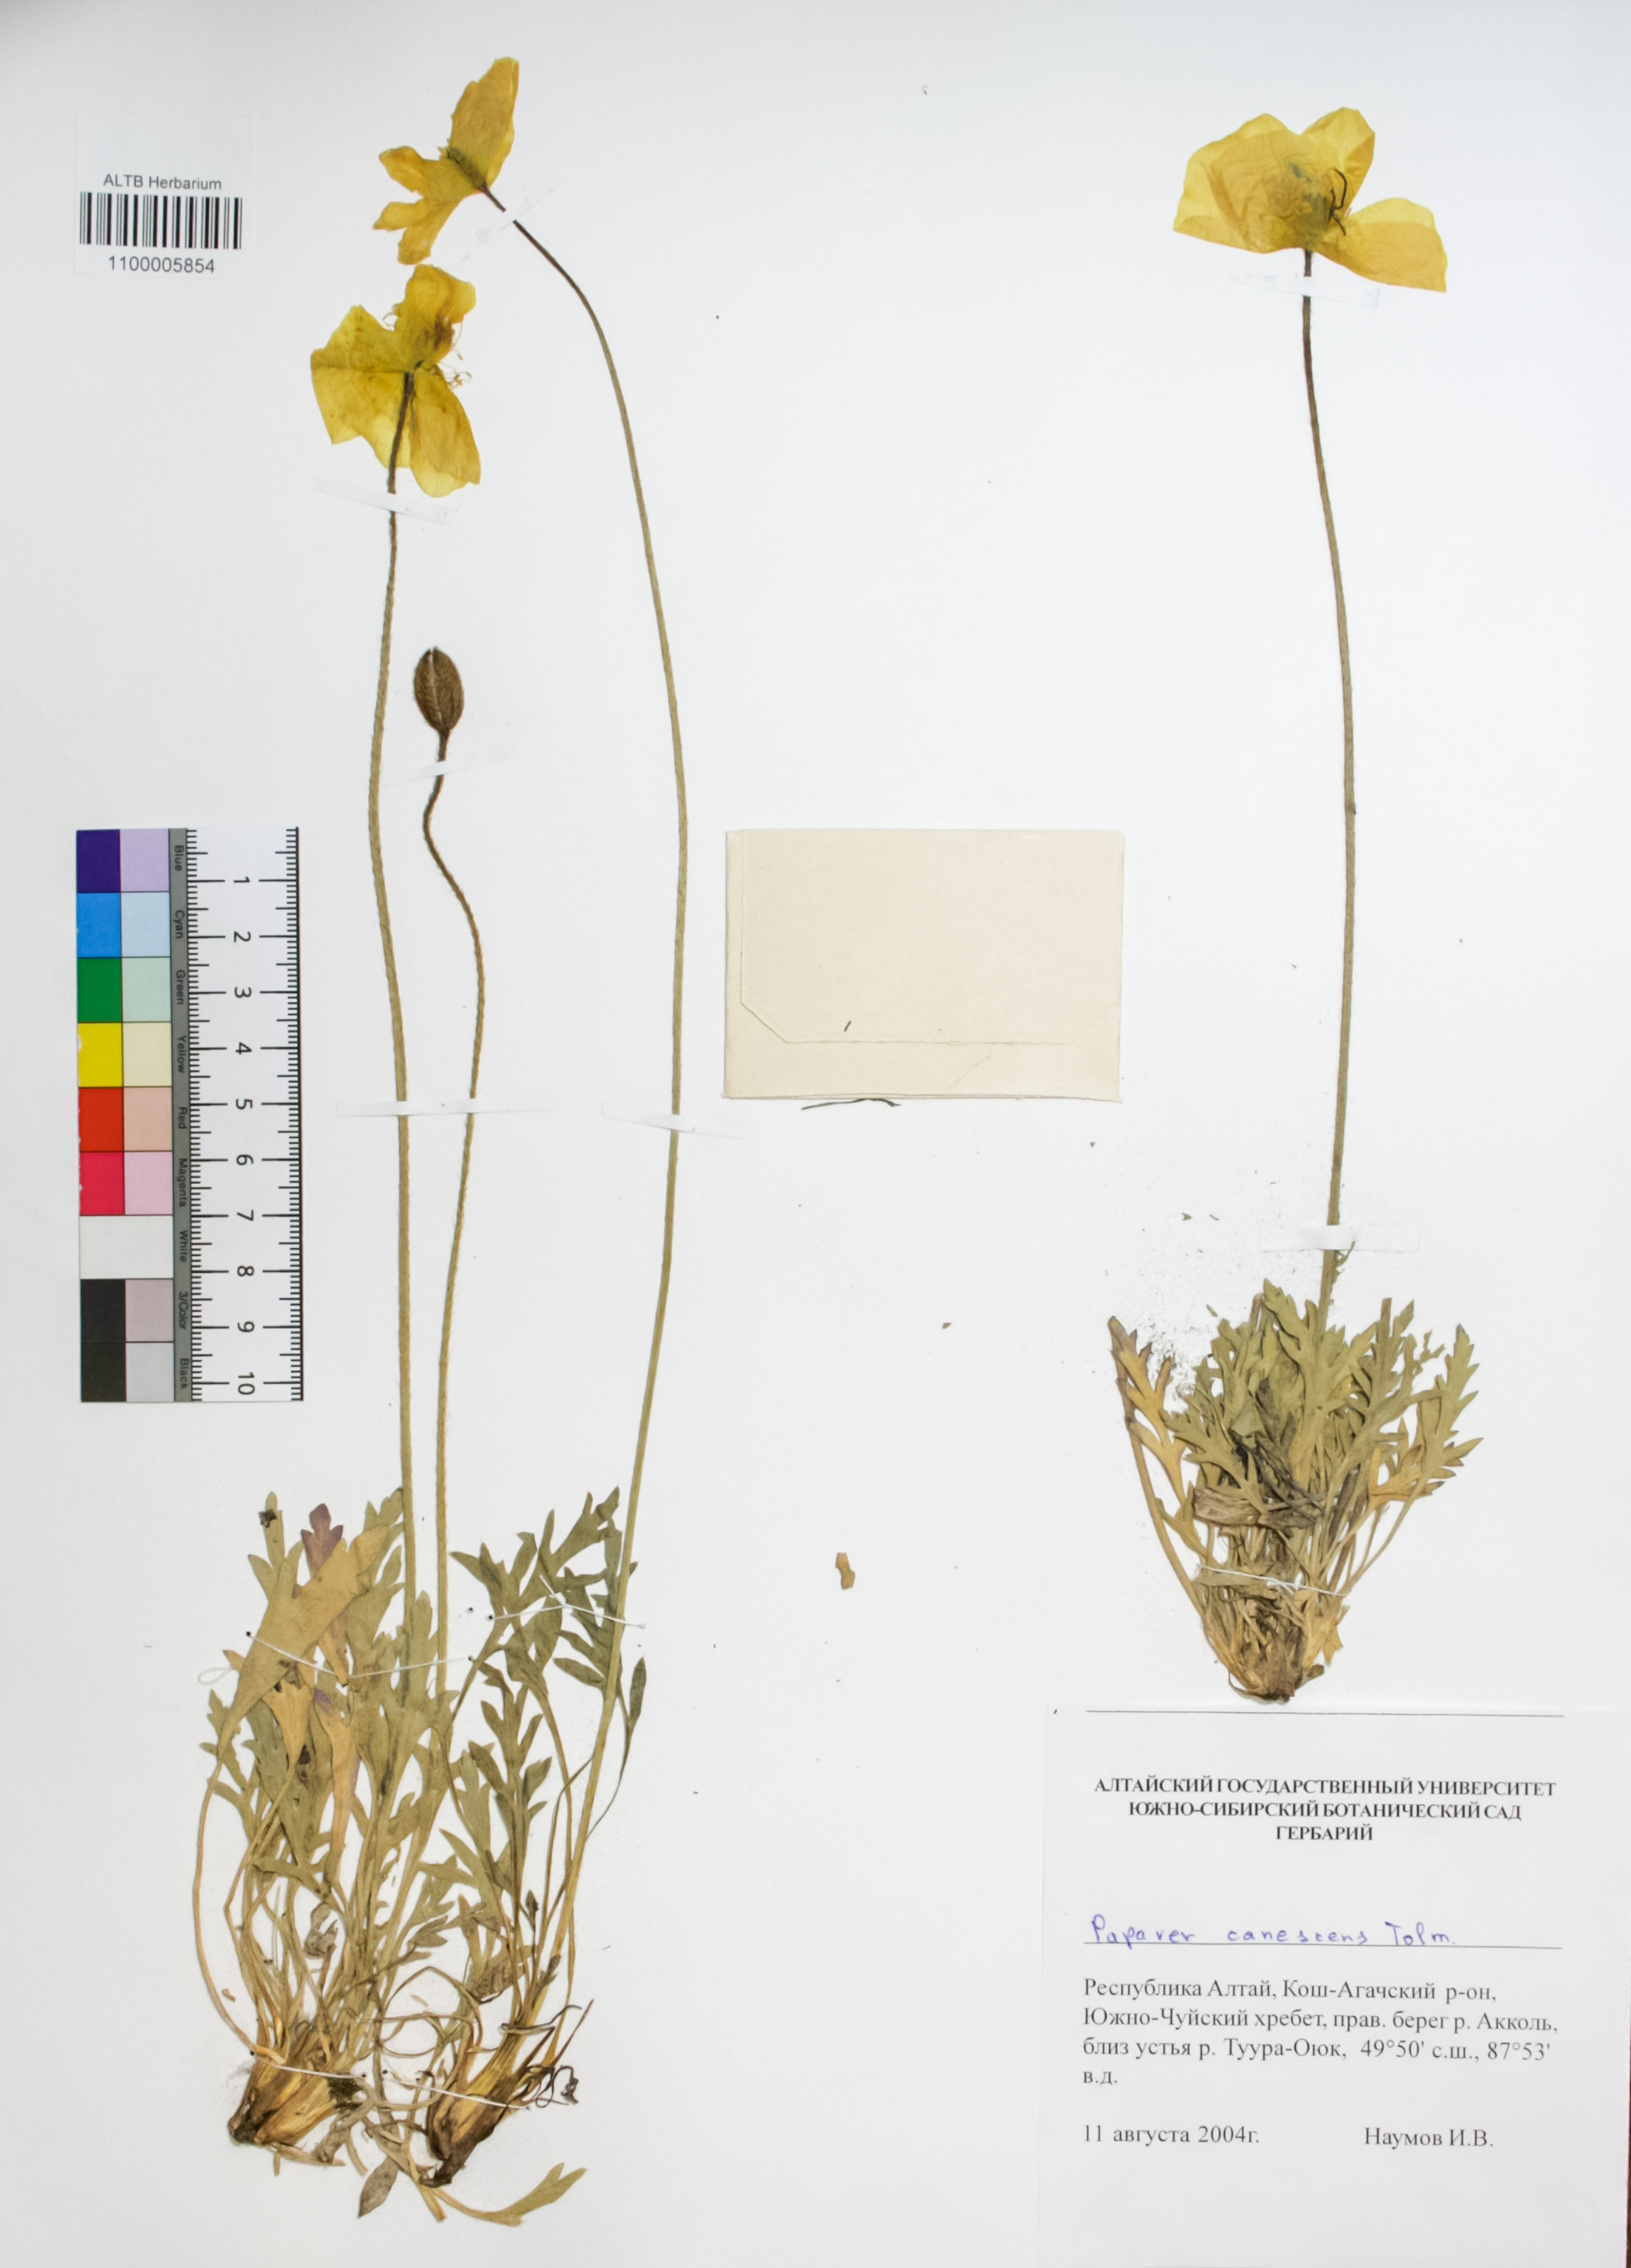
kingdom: Plantae
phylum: Tracheophyta
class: Magnoliopsida
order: Ranunculales
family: Papaveraceae
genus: Papaver
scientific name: Papaver canescens
